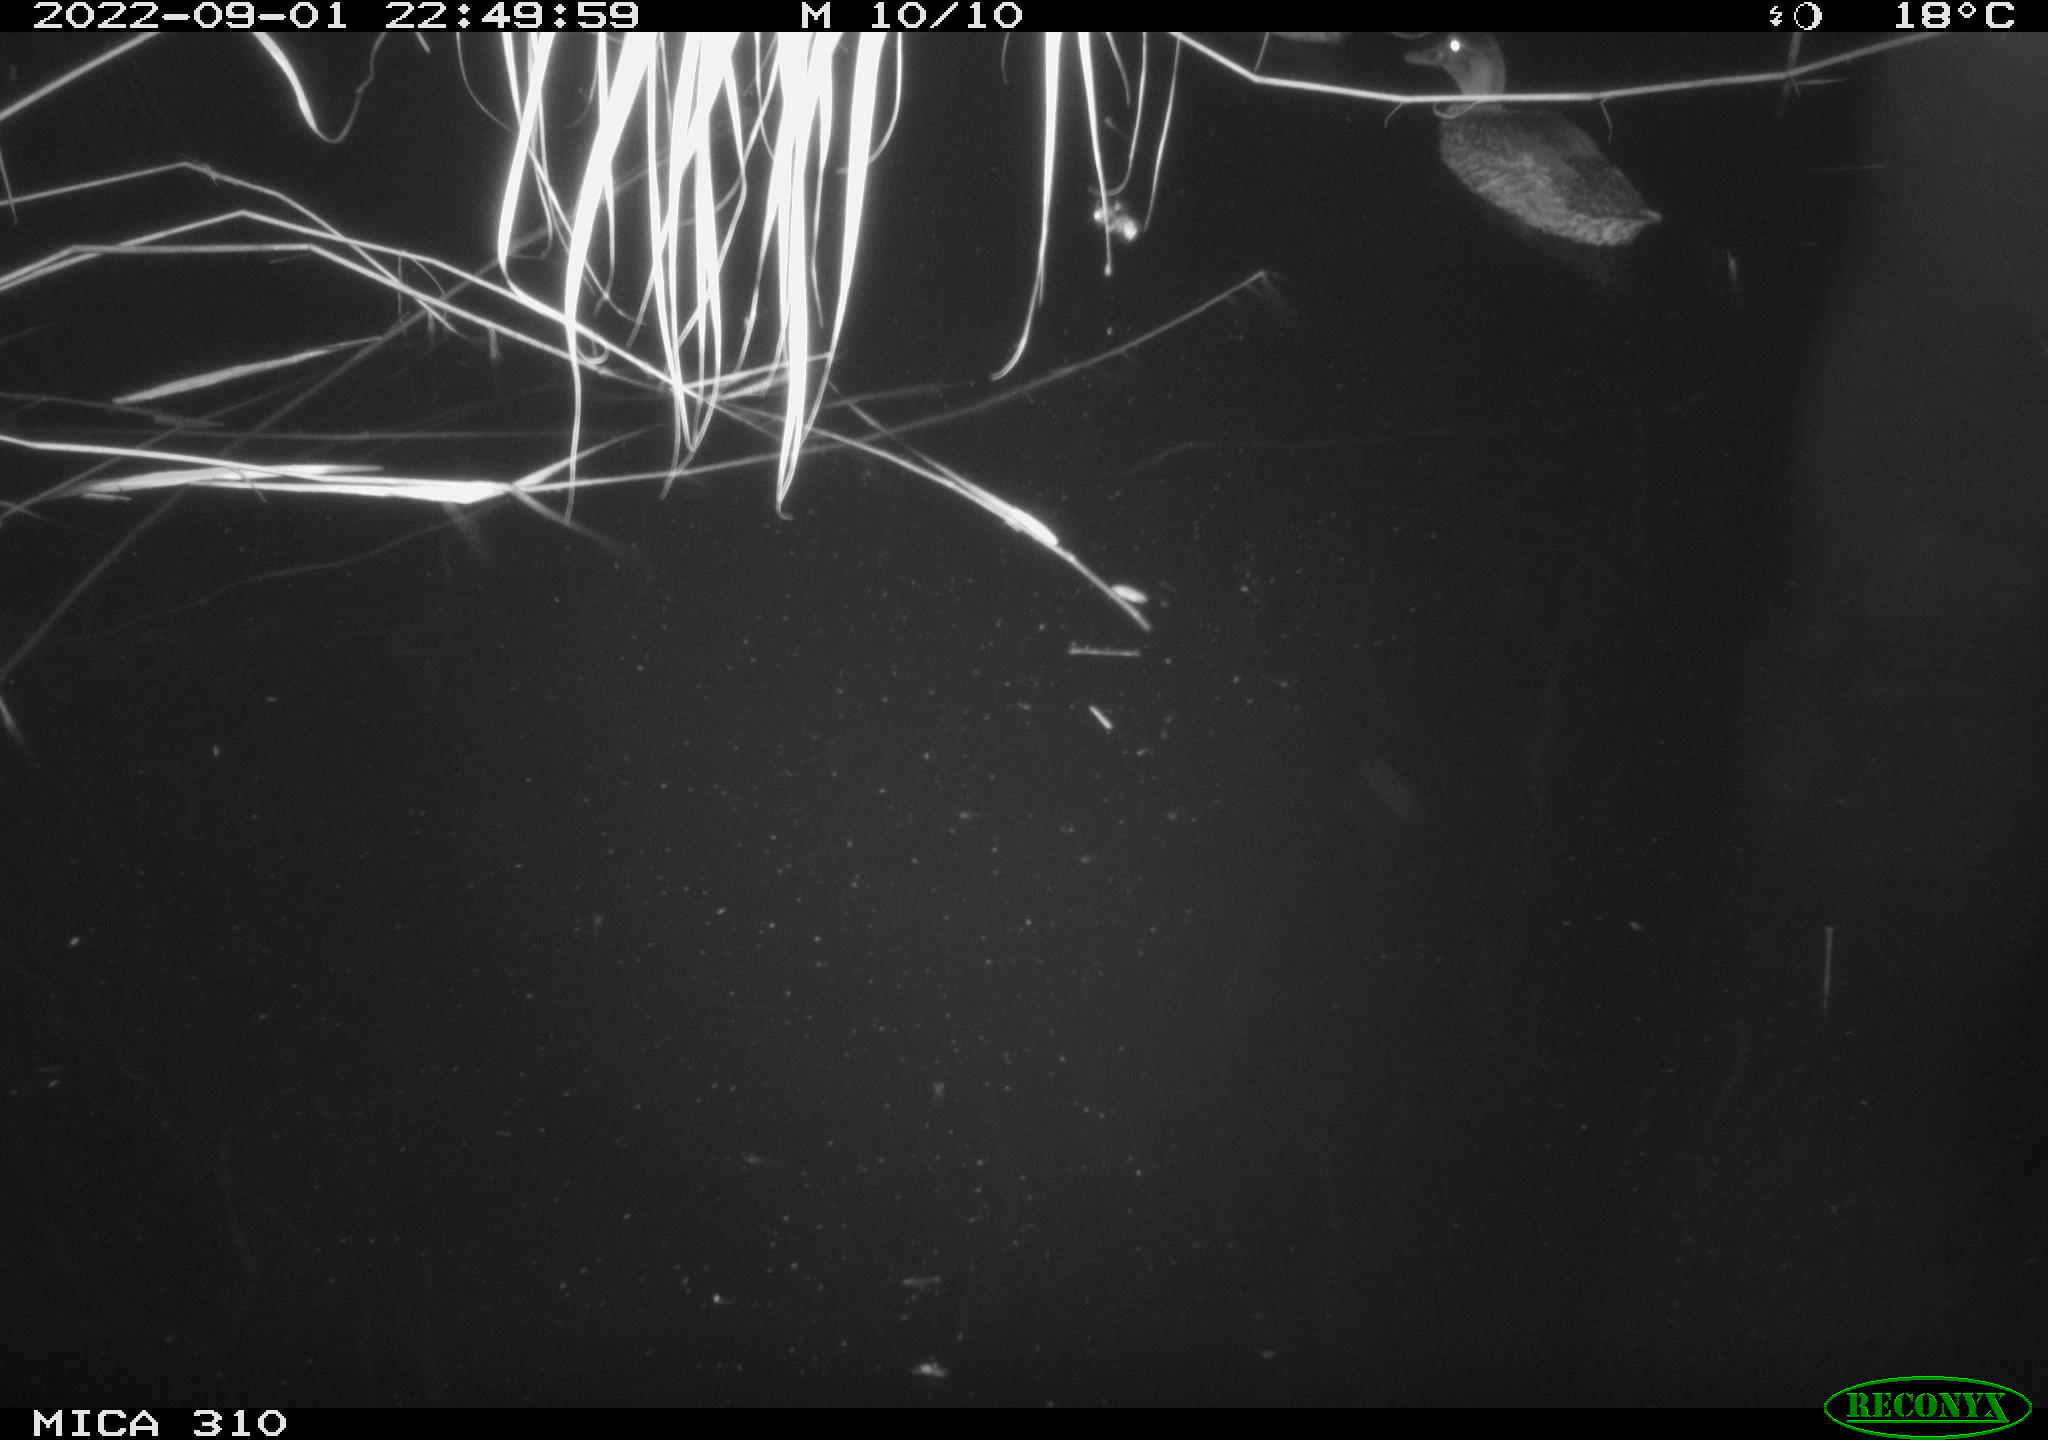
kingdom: Animalia
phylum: Chordata
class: Aves
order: Anseriformes
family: Anatidae
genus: Anas
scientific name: Anas platyrhynchos
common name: Mallard
